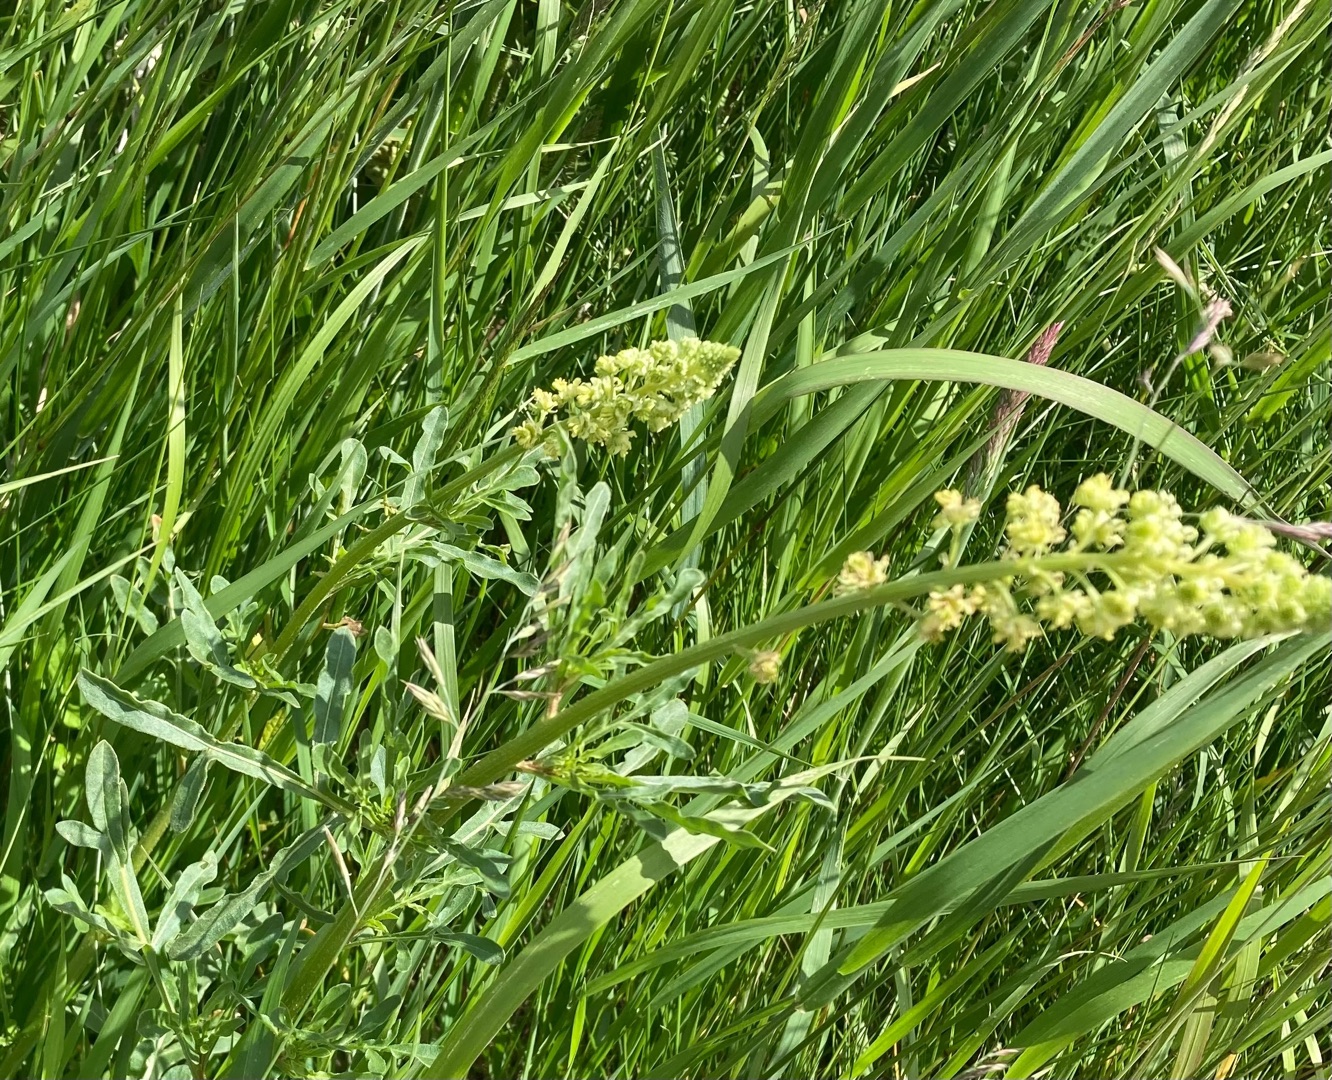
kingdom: Plantae
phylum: Tracheophyta
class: Magnoliopsida
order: Brassicales
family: Resedaceae
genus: Reseda
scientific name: Reseda lutea
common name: Gul reseda
